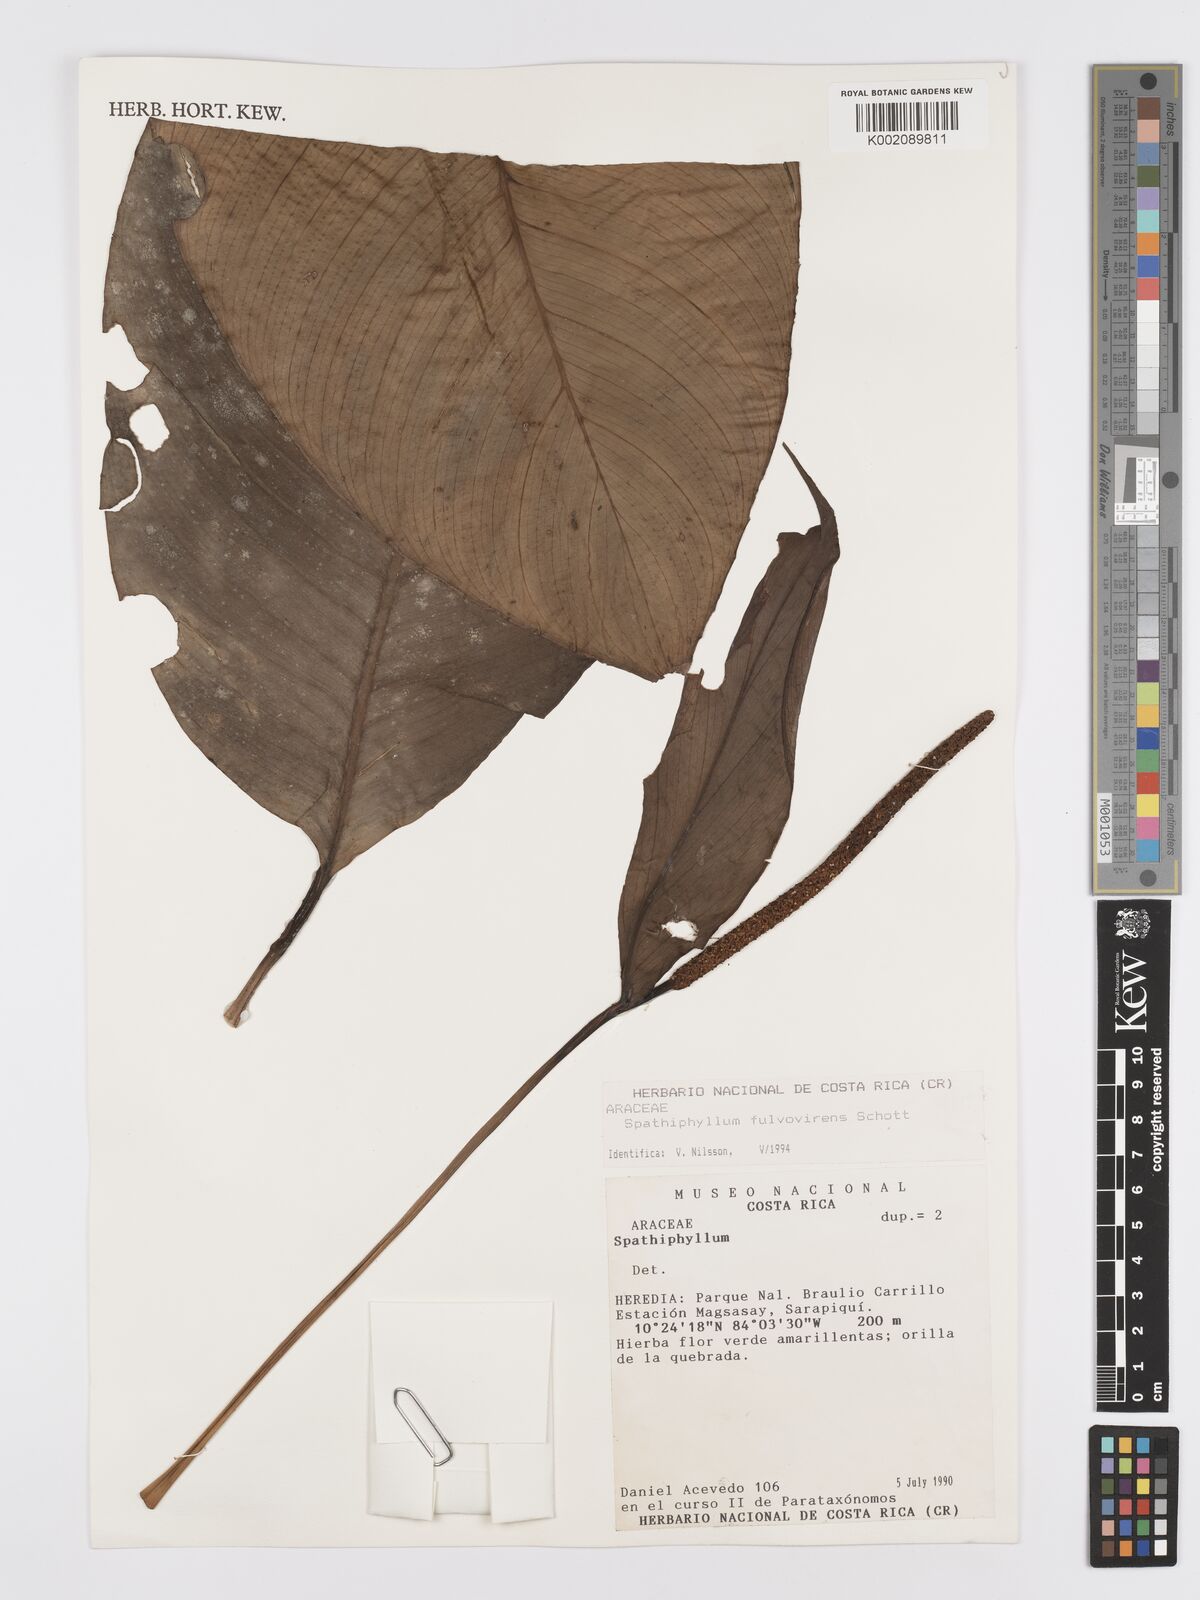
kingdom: Plantae
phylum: Tracheophyta
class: Liliopsida
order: Alismatales
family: Araceae
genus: Spathiphyllum
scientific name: Spathiphyllum fulvovirens
